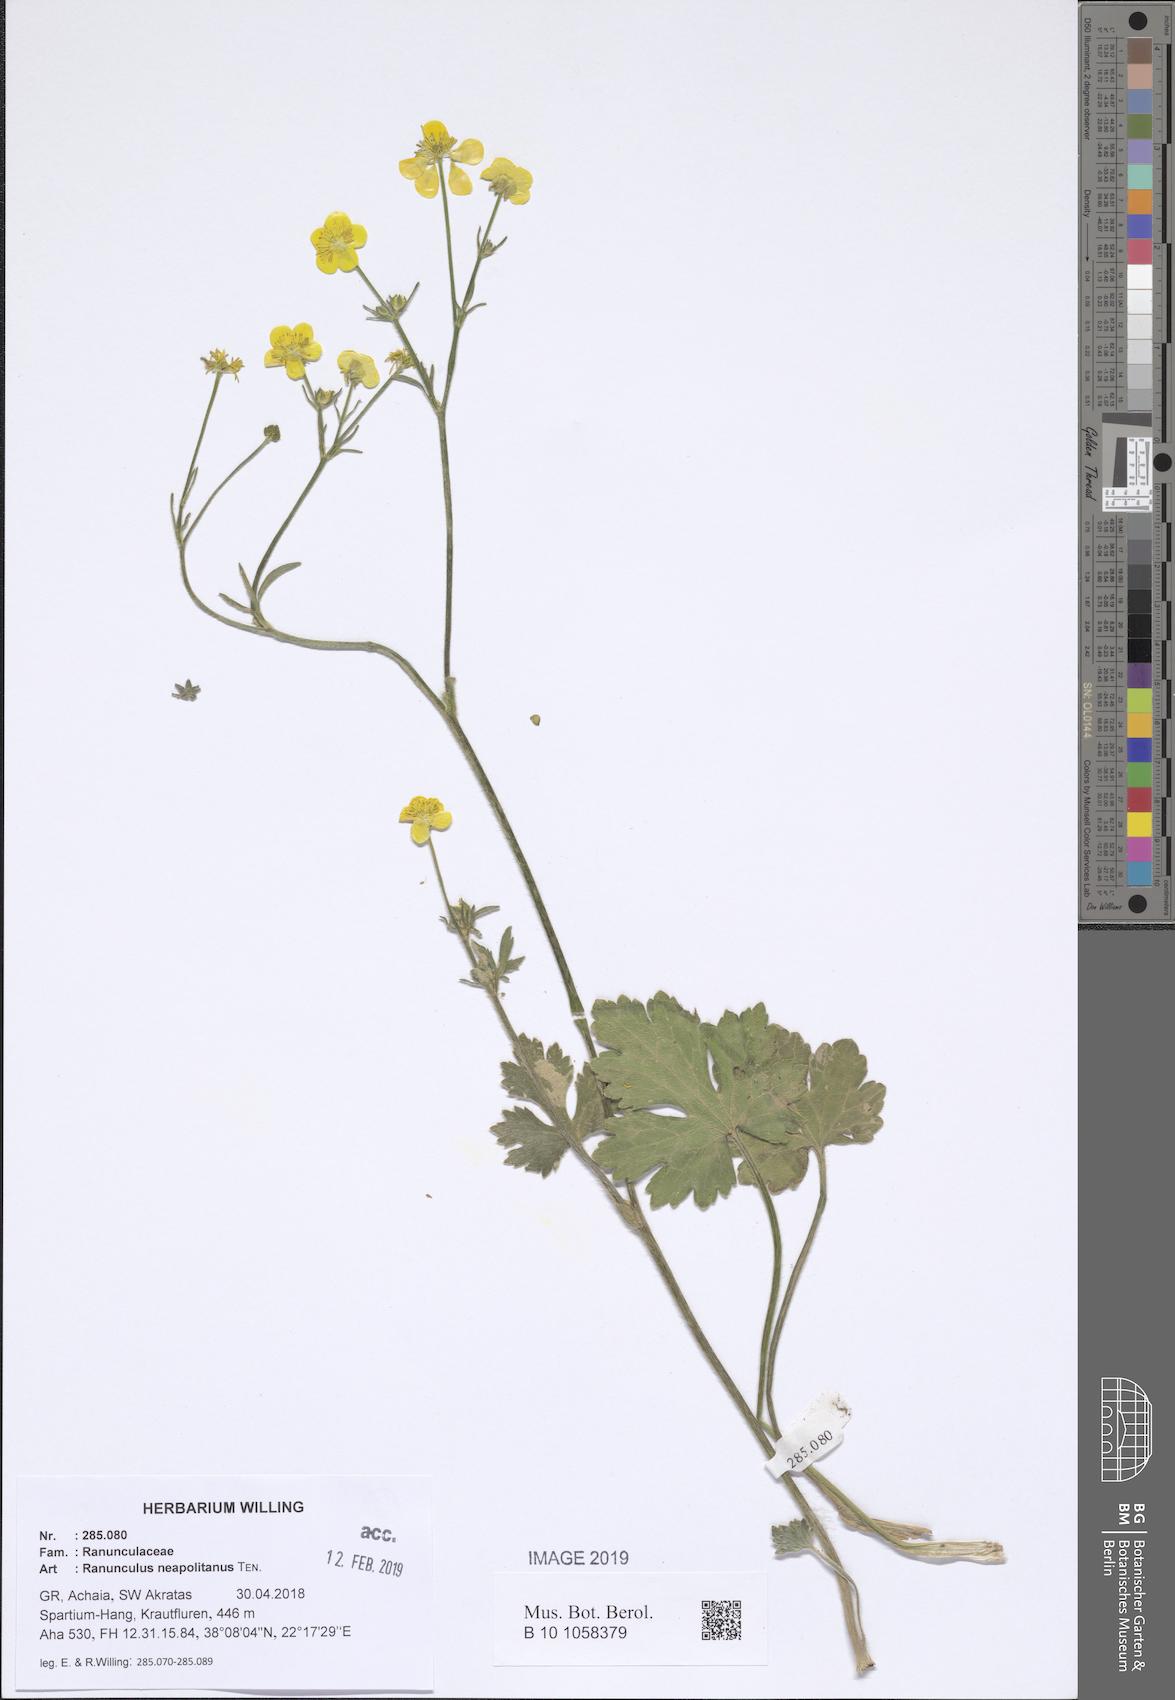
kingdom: Plantae
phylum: Tracheophyta
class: Magnoliopsida
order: Ranunculales
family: Ranunculaceae
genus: Ranunculus
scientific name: Ranunculus neapolitanus
